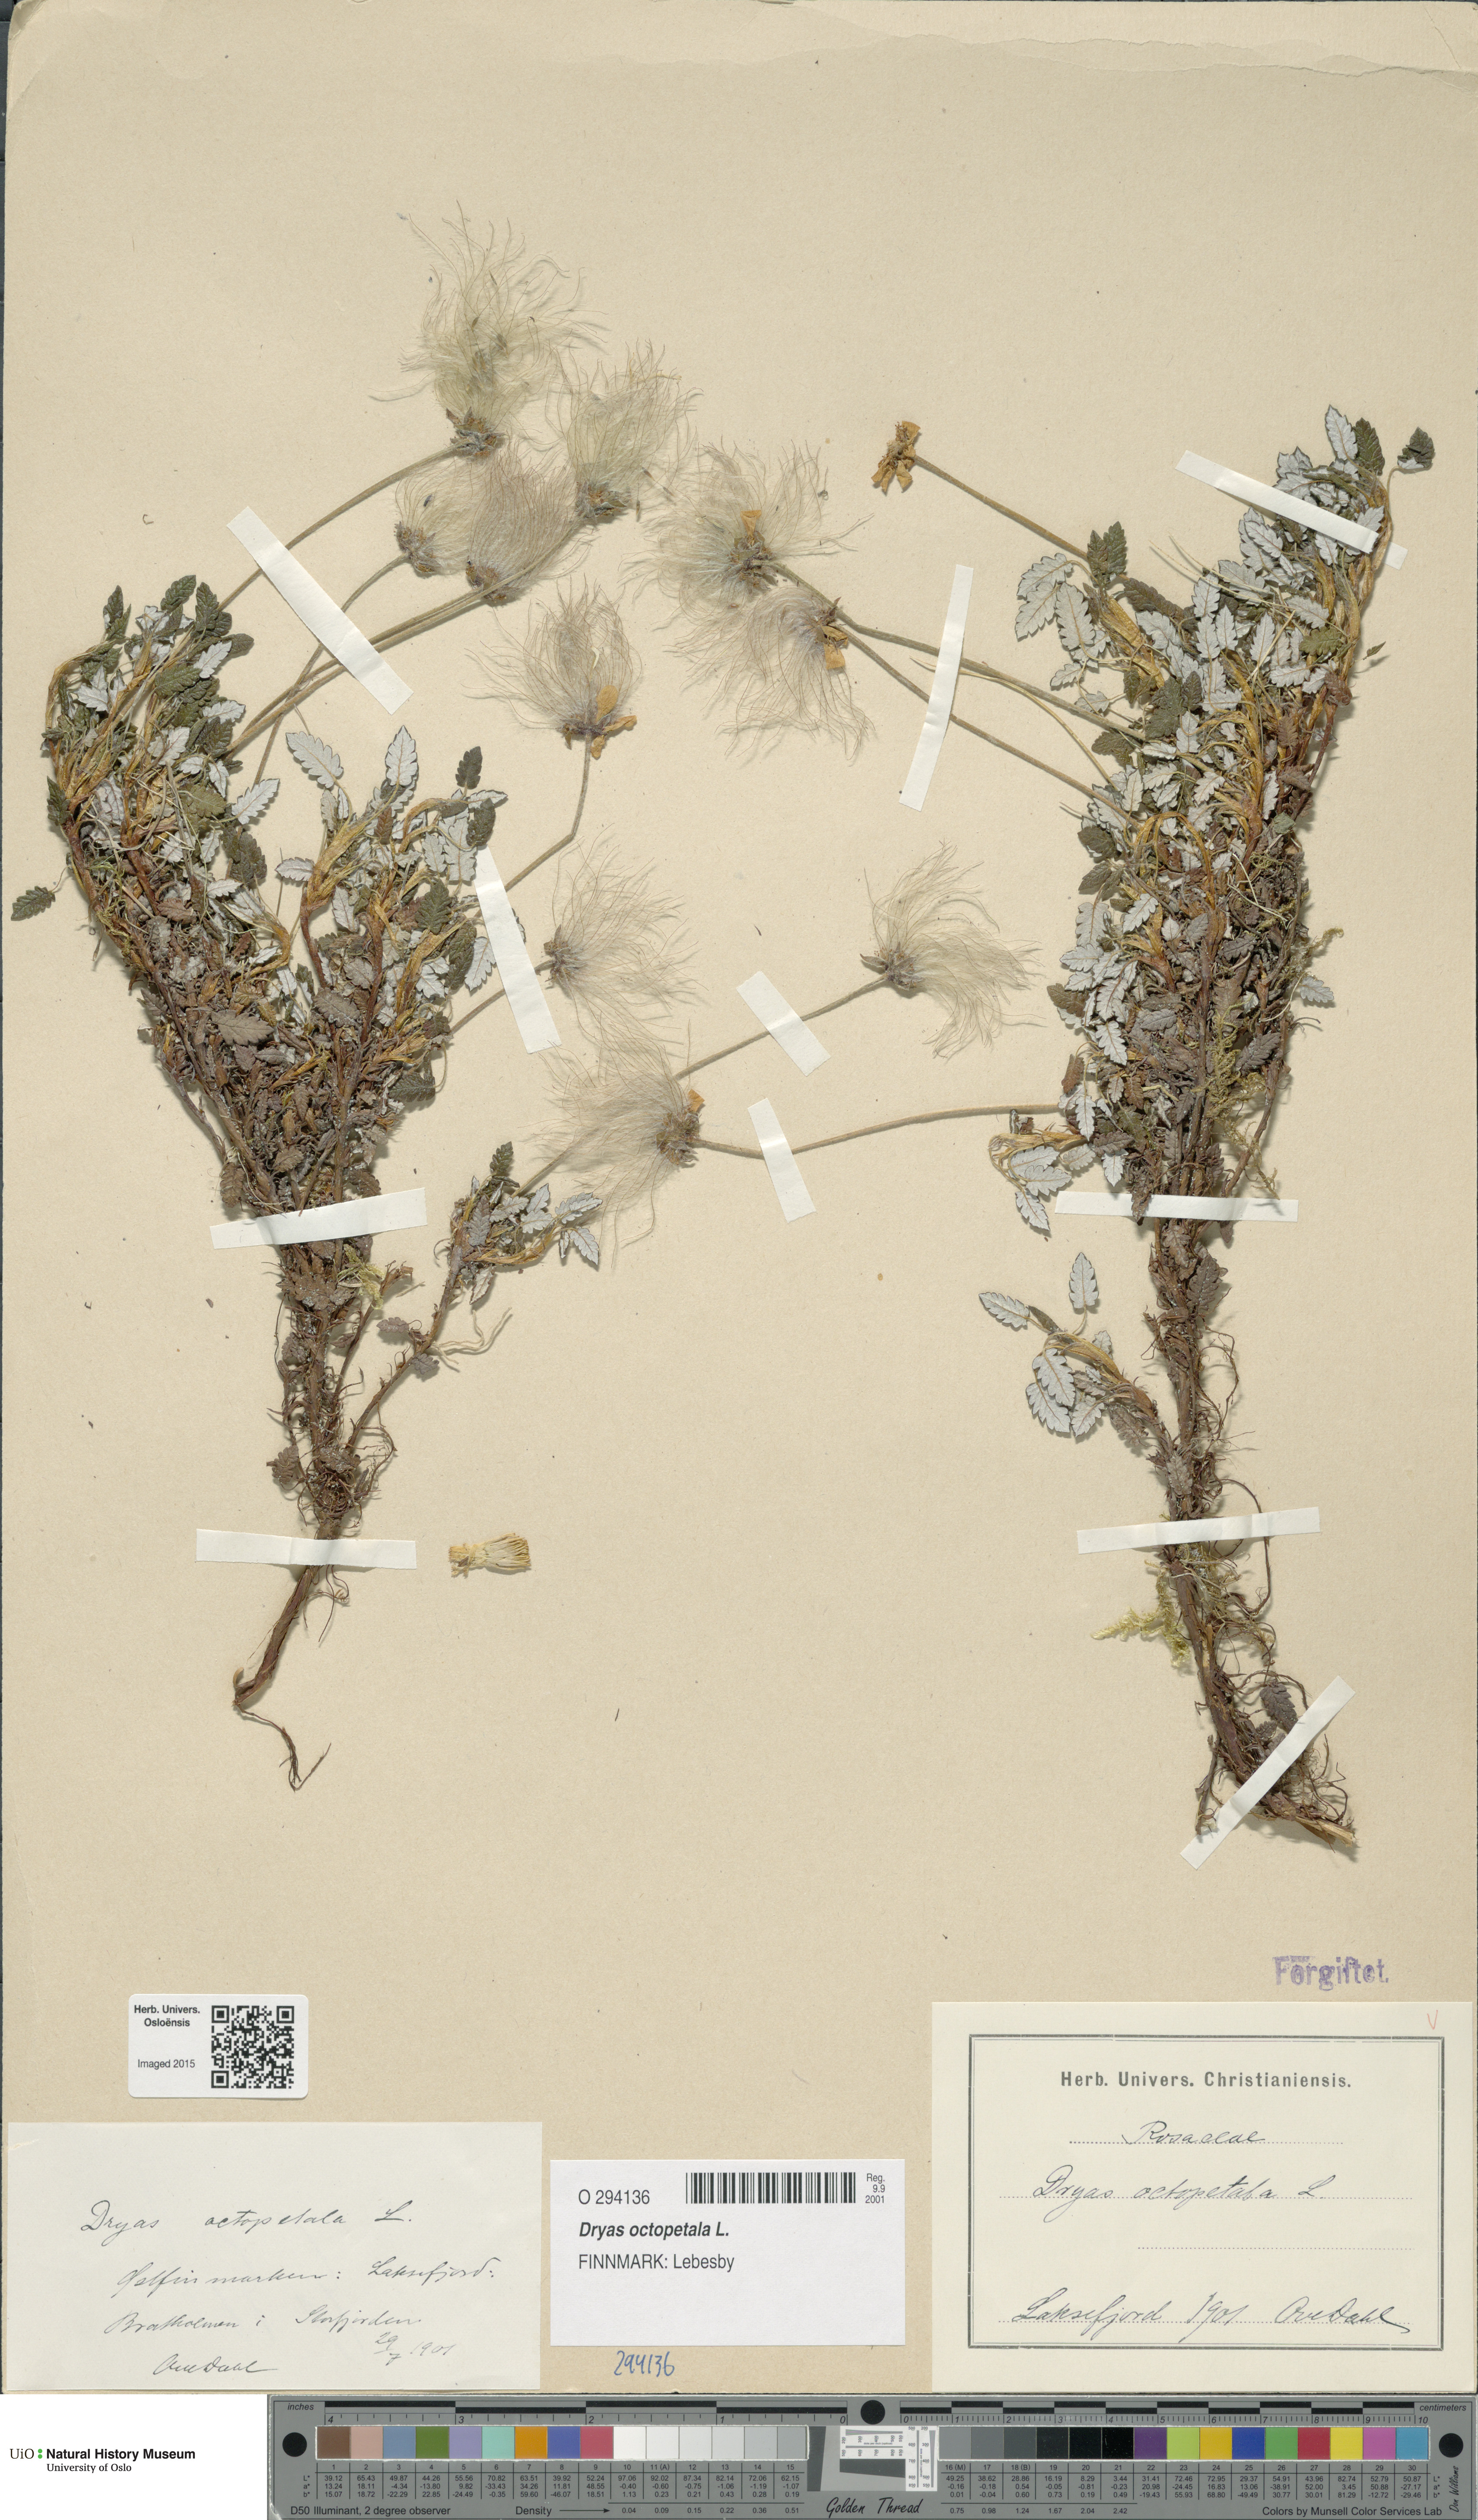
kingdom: Plantae
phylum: Tracheophyta
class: Magnoliopsida
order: Rosales
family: Rosaceae
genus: Dryas
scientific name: Dryas octopetala
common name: Eight-petal mountain-avens
